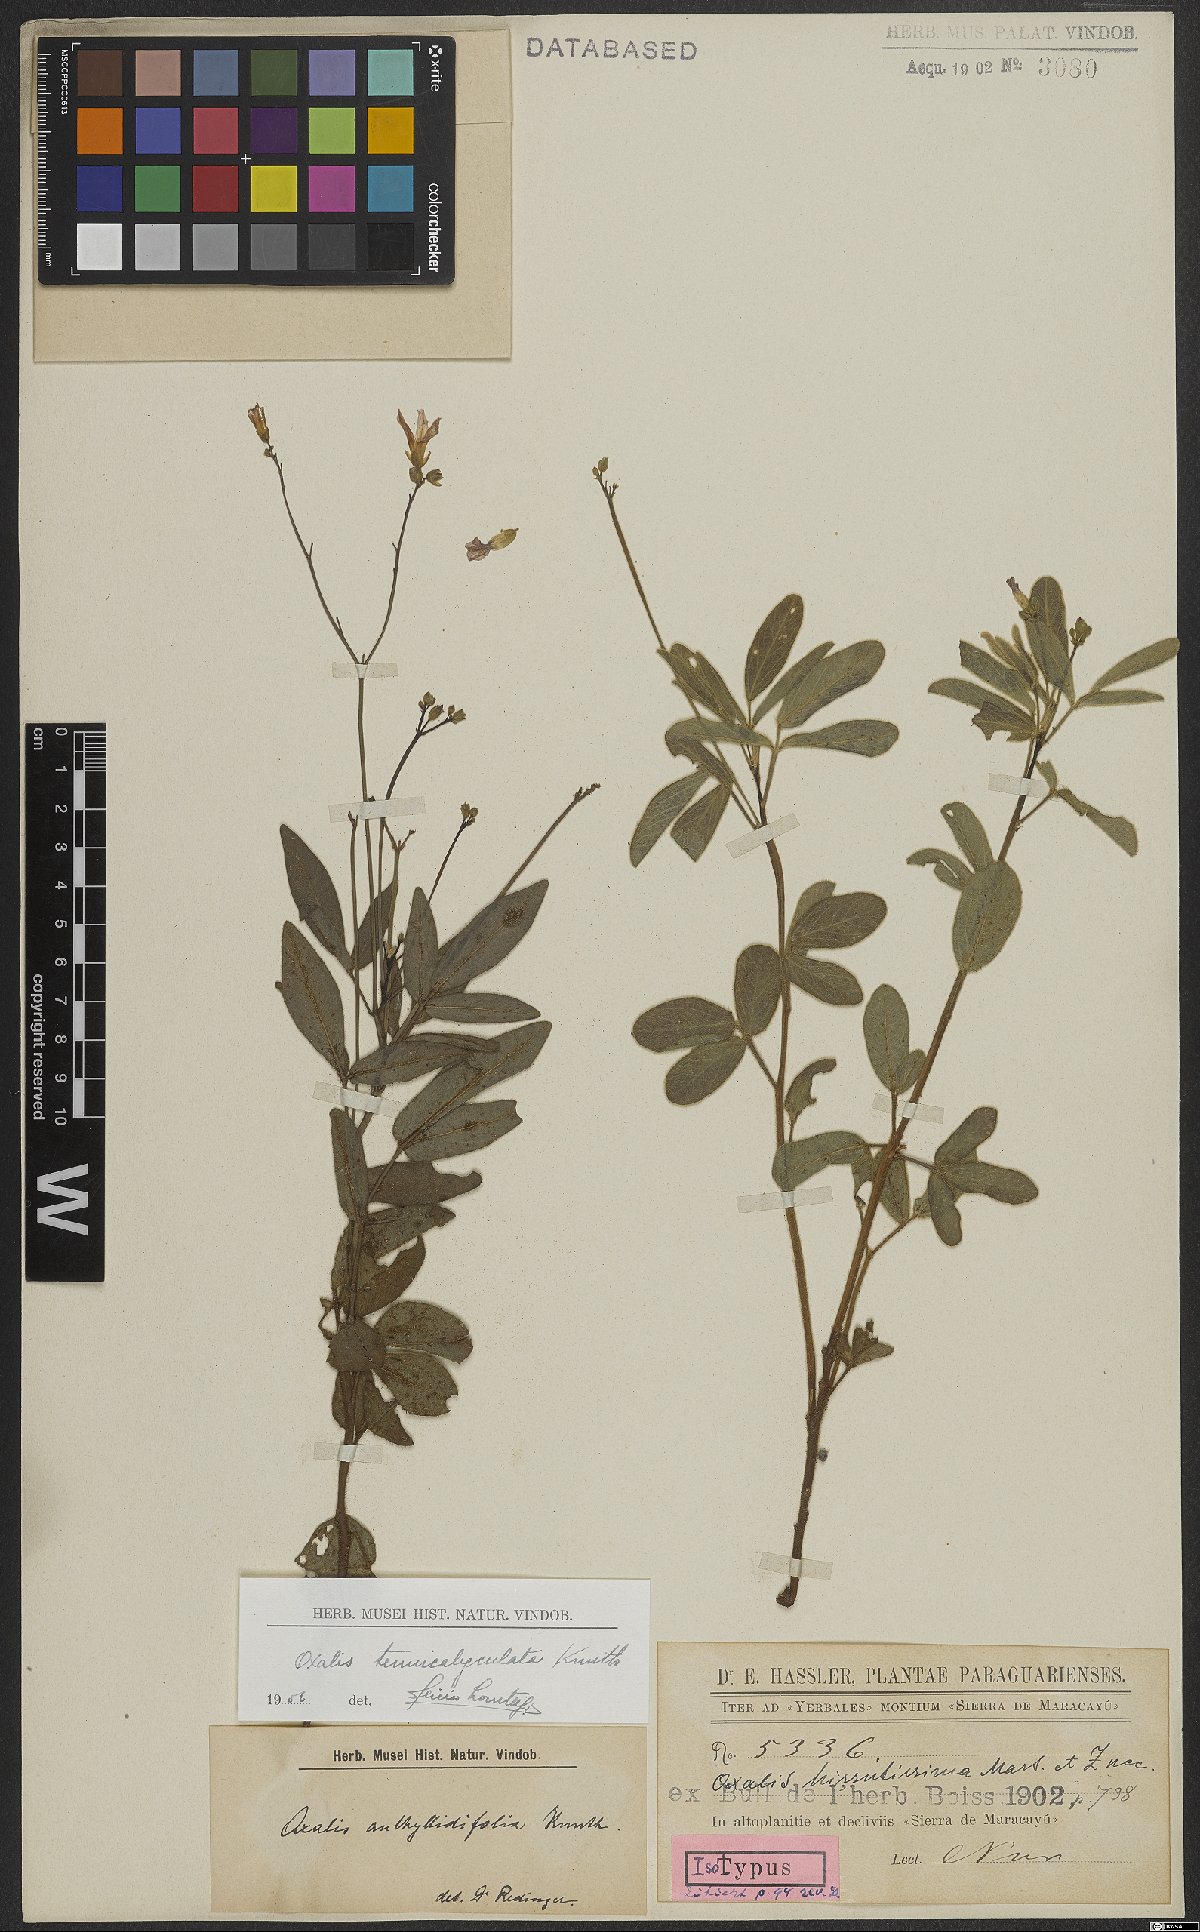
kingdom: Plantae
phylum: Tracheophyta
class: Magnoliopsida
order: Oxalidales
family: Oxalidaceae
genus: Oxalis
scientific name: Oxalis sellowii
